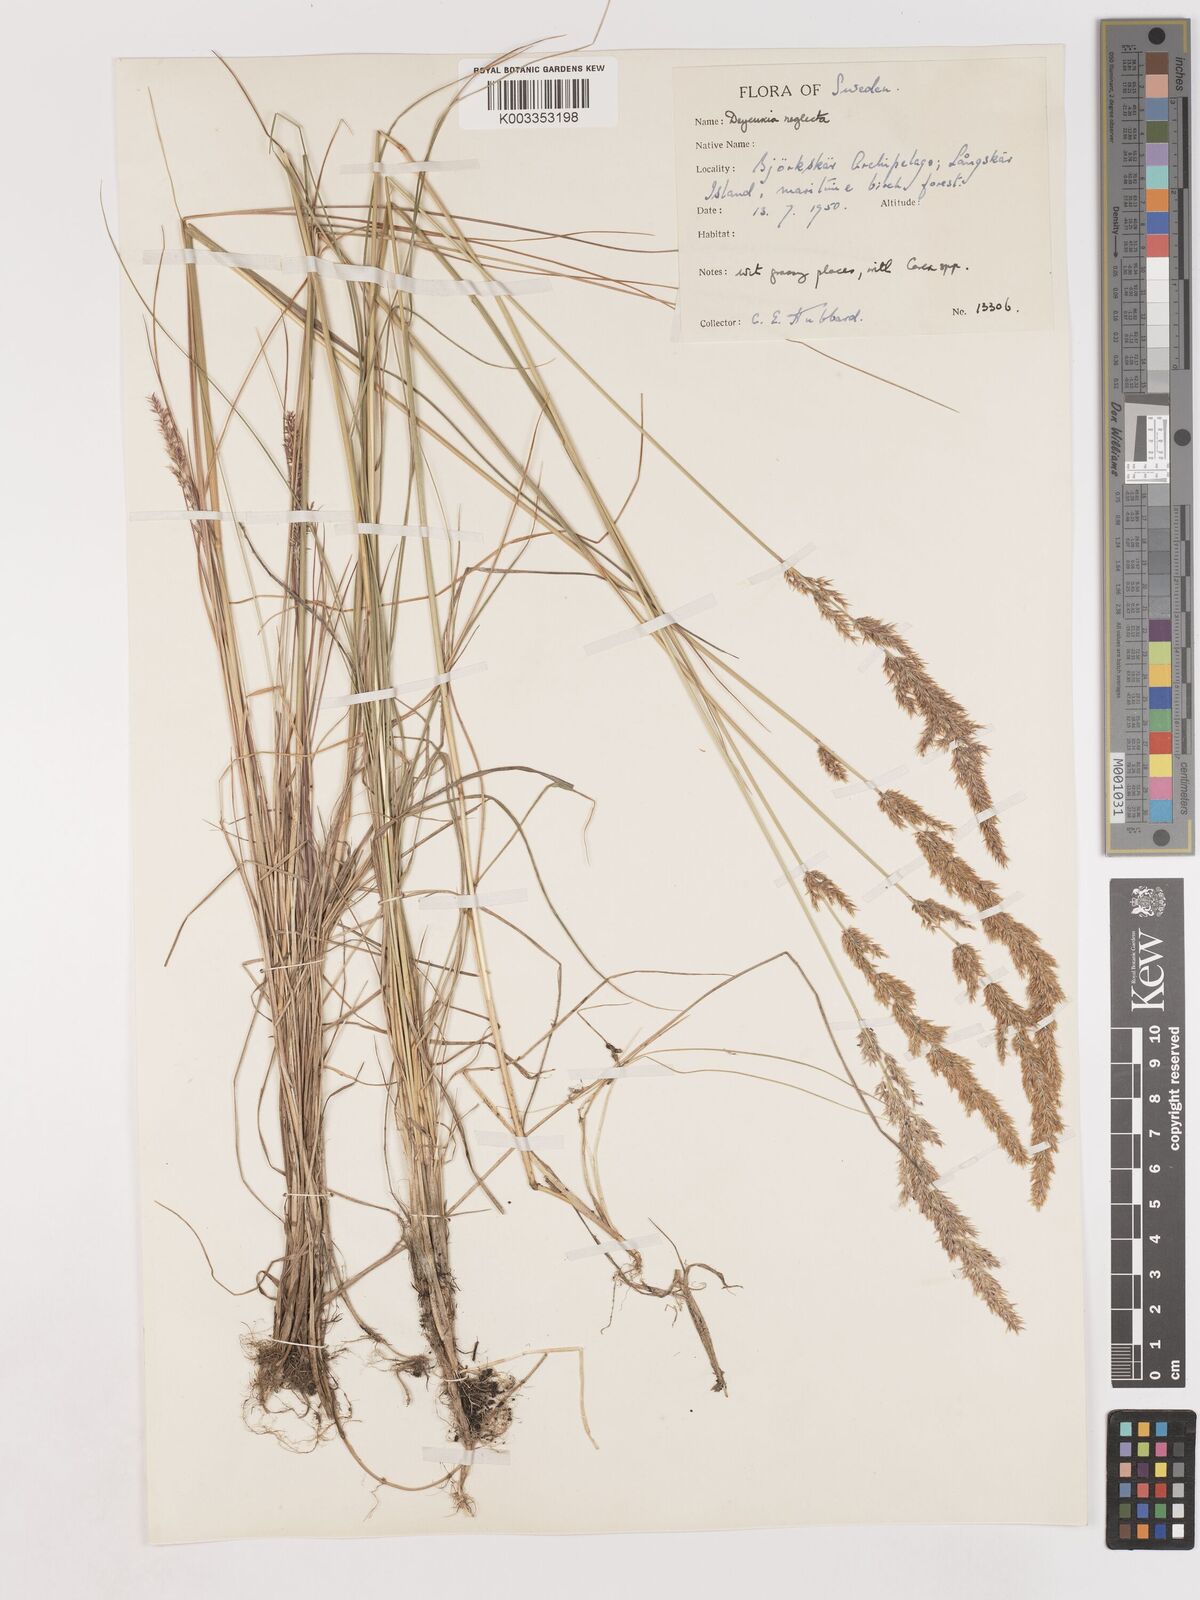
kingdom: Plantae
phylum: Tracheophyta
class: Liliopsida
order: Poales
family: Poaceae
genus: Cinnagrostis
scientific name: Cinnagrostis recta
